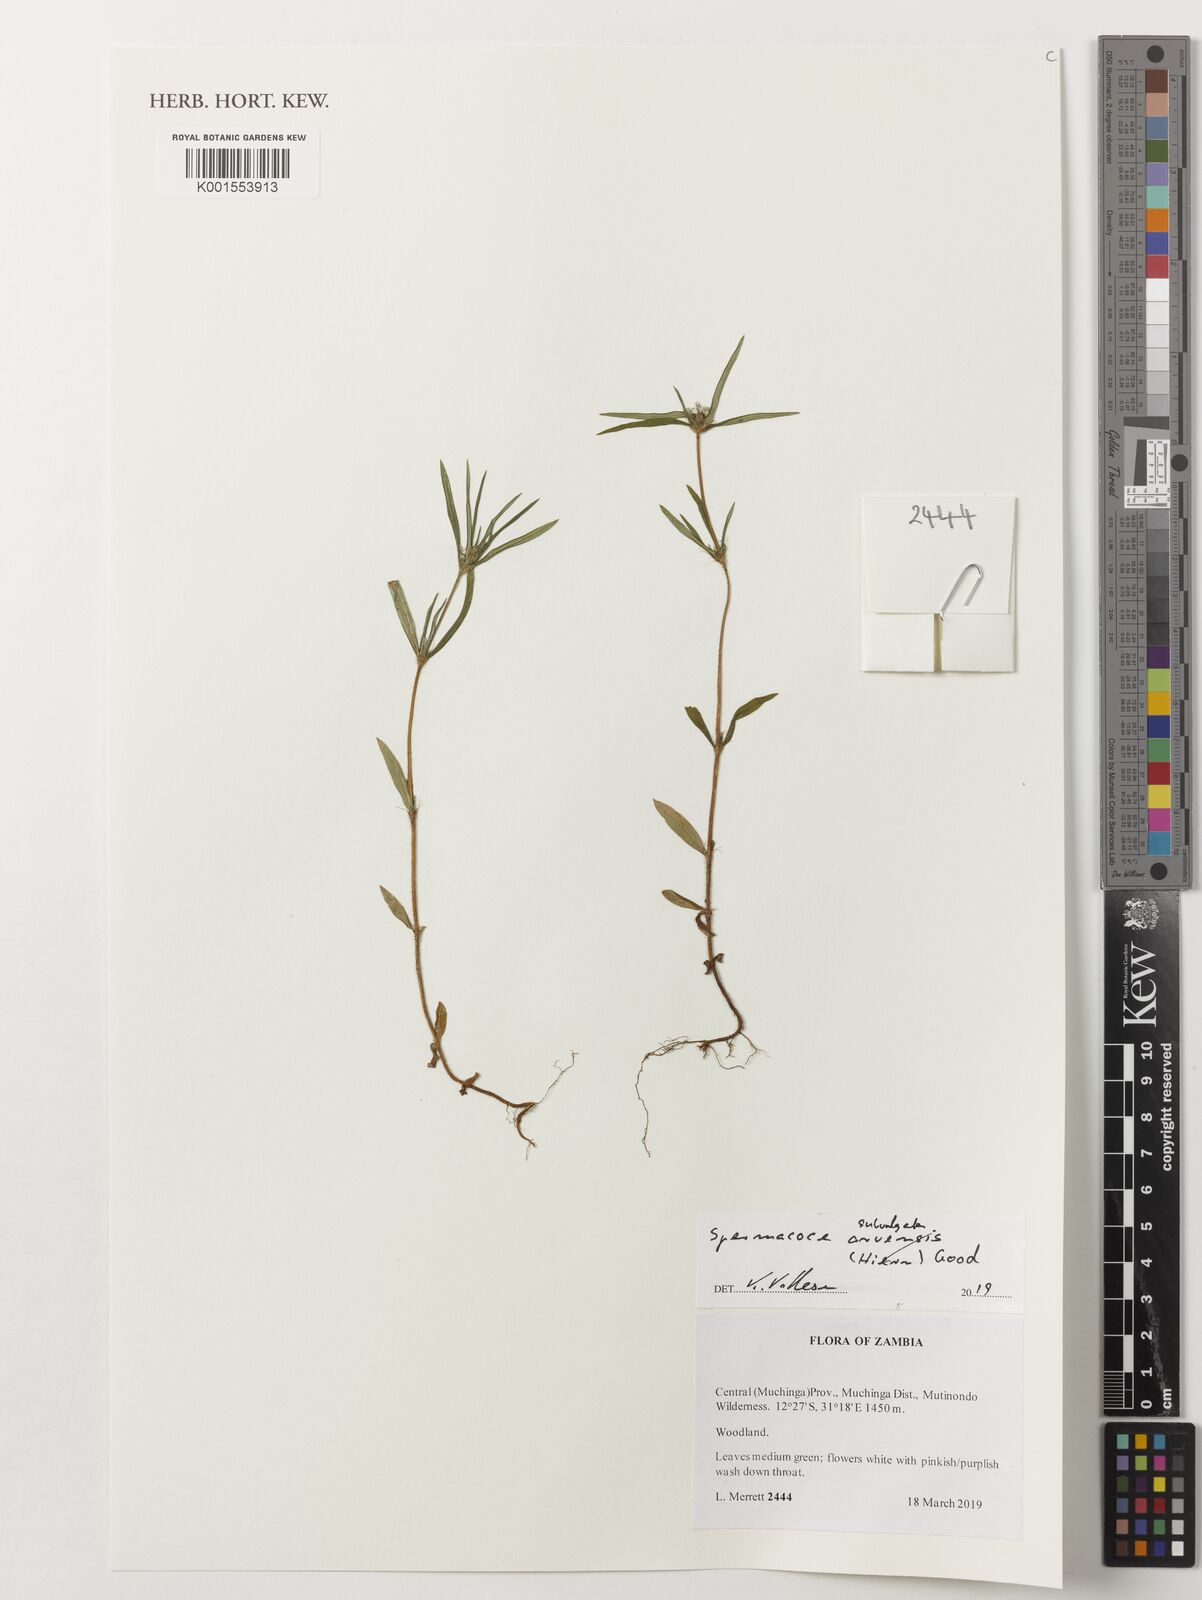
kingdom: Plantae
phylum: Tracheophyta
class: Magnoliopsida
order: Gentianales
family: Rubiaceae
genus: Spermacoce
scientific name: Spermacoce subvulgata
